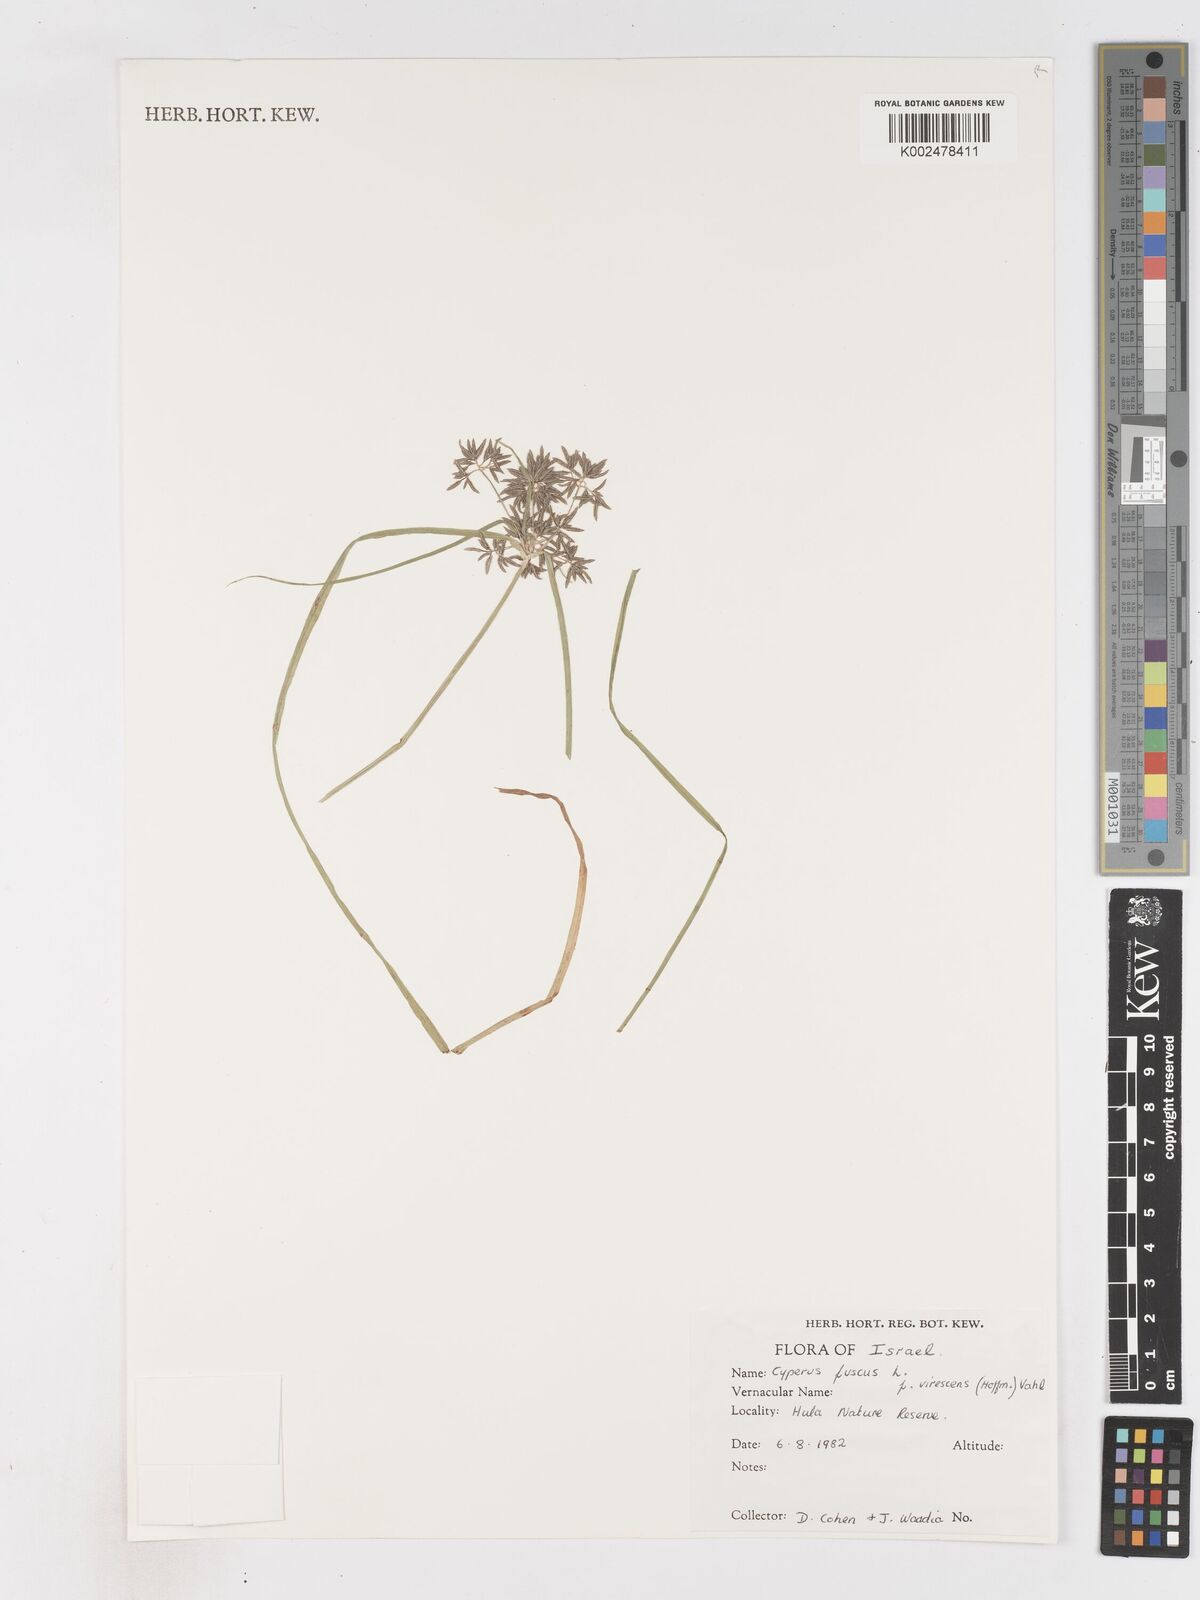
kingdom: Plantae
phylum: Tracheophyta
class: Liliopsida
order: Poales
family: Cyperaceae
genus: Cyperus
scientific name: Cyperus fuscus
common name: Brown galingale
